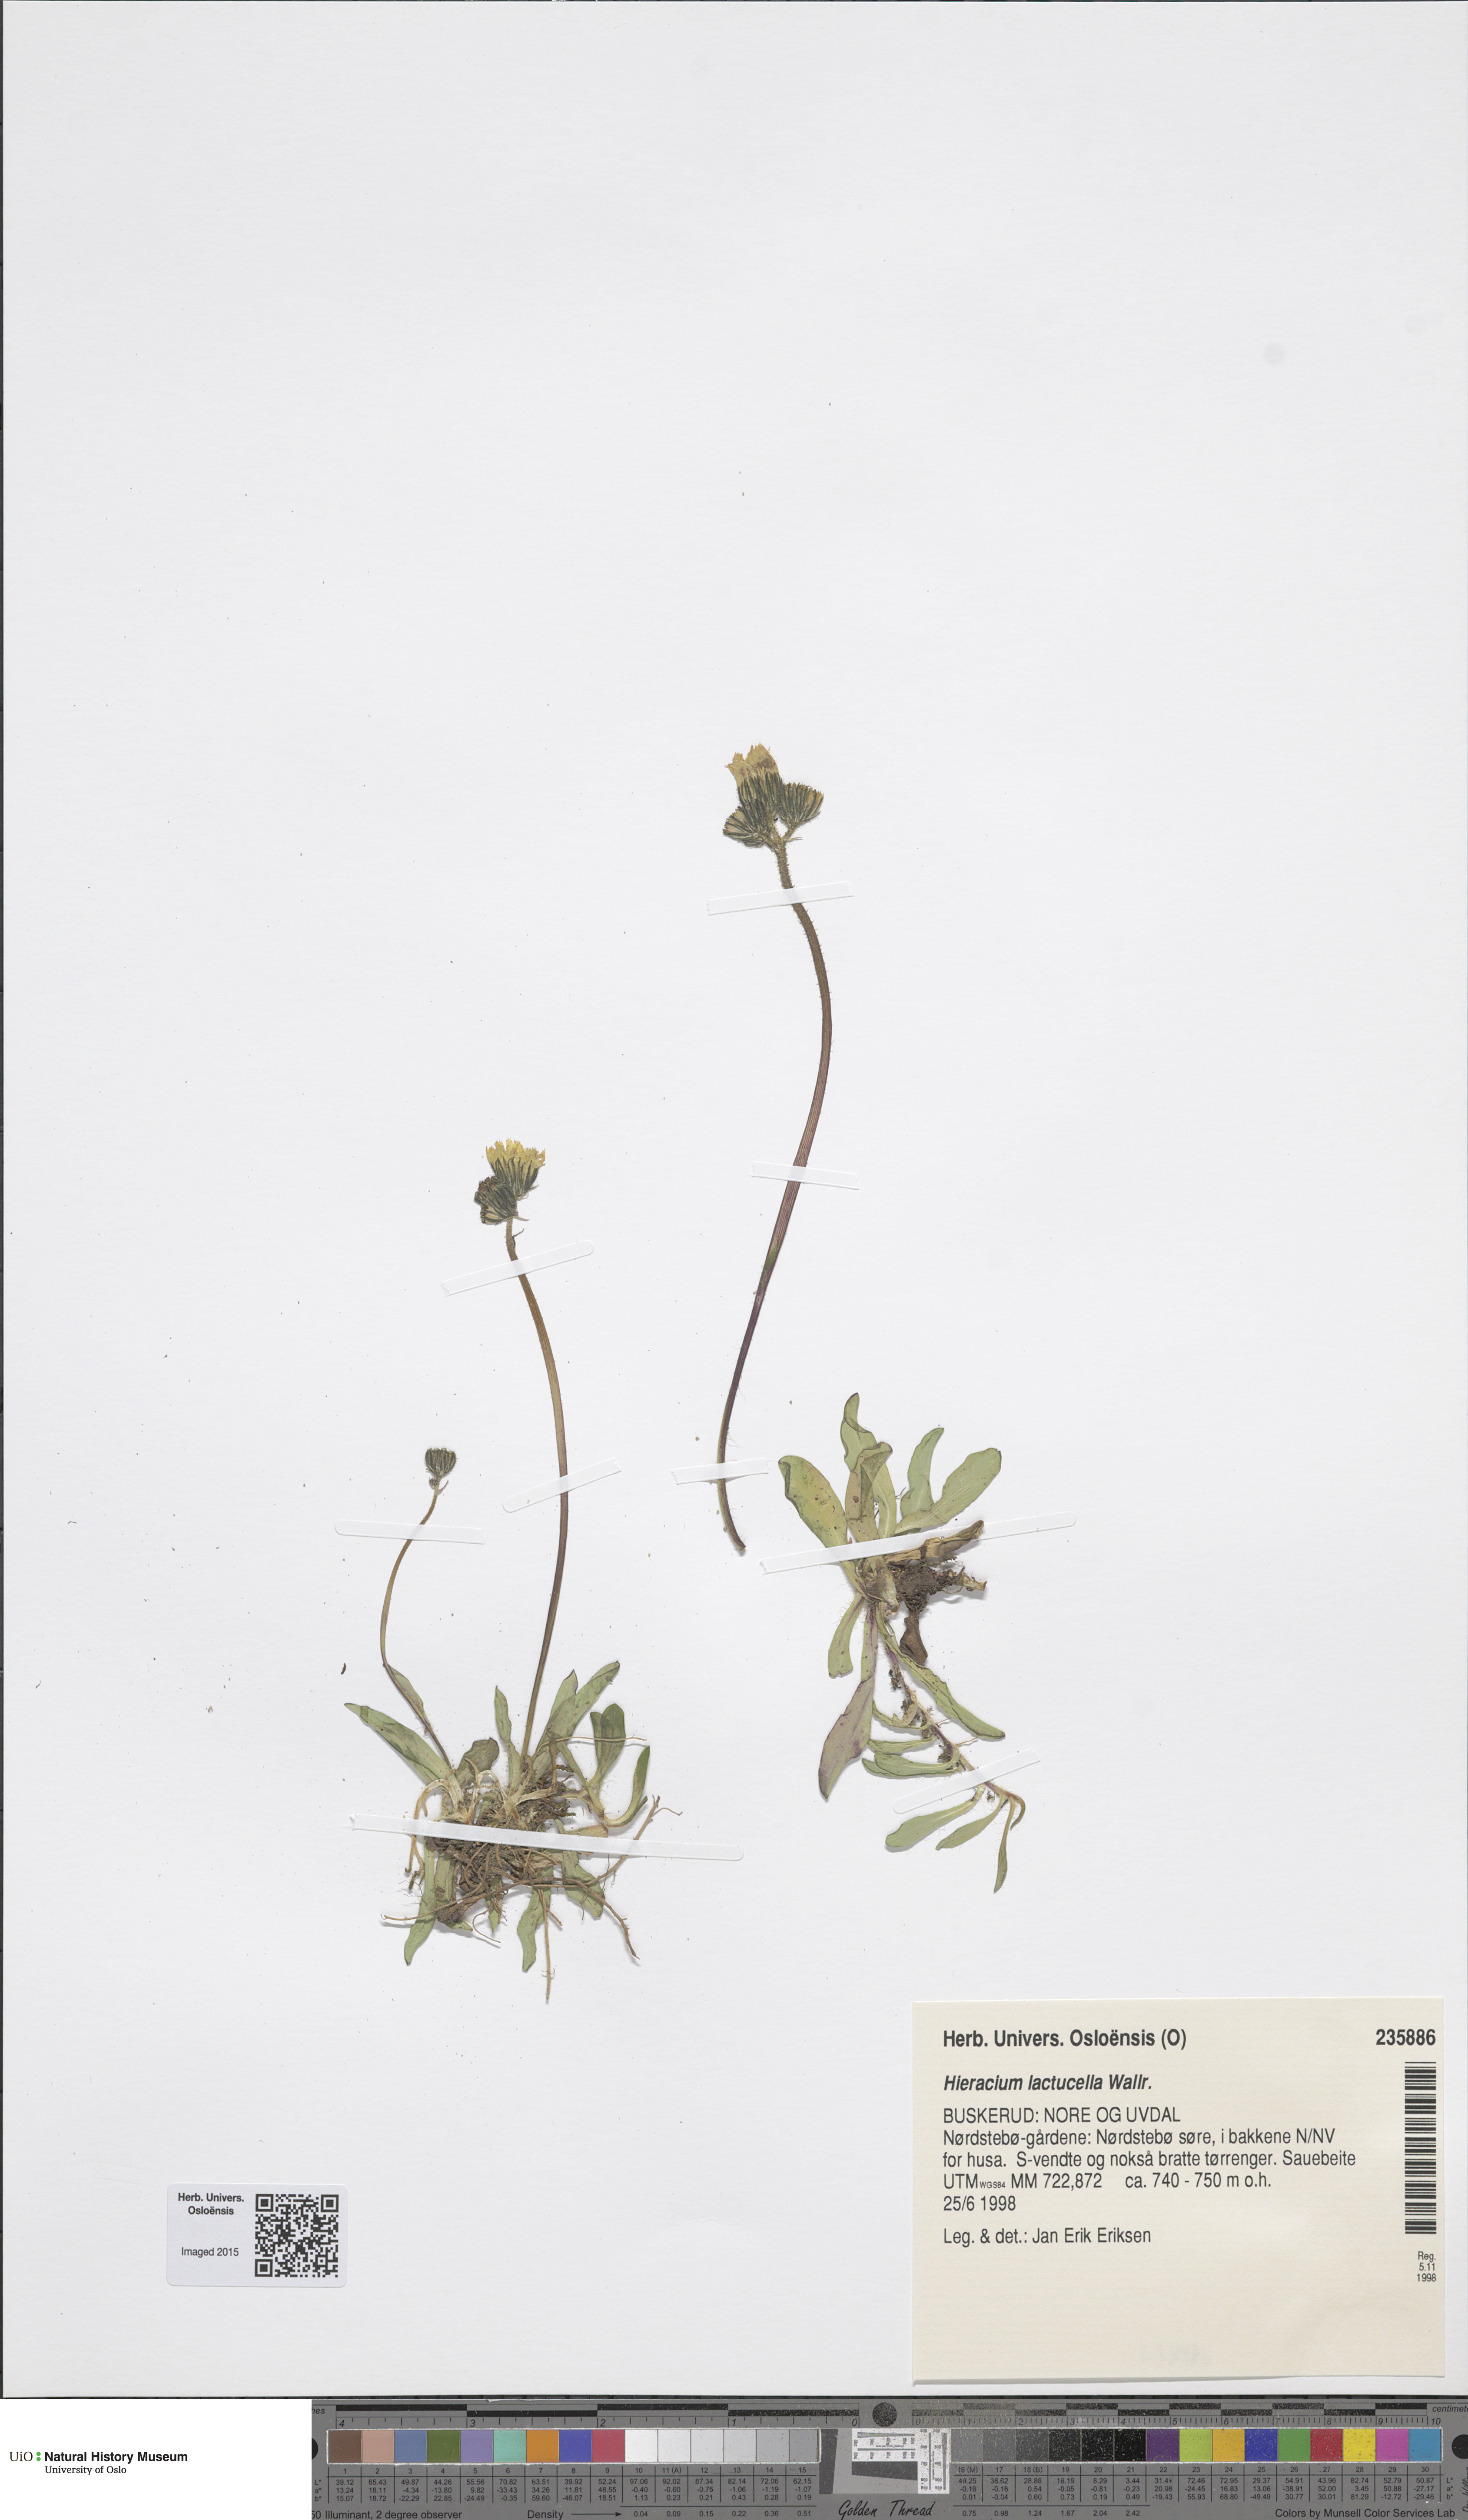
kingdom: Plantae
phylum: Tracheophyta
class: Magnoliopsida
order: Asterales
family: Asteraceae
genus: Pilosella
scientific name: Pilosella lactucella
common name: Glaucous fox-and-cubs
